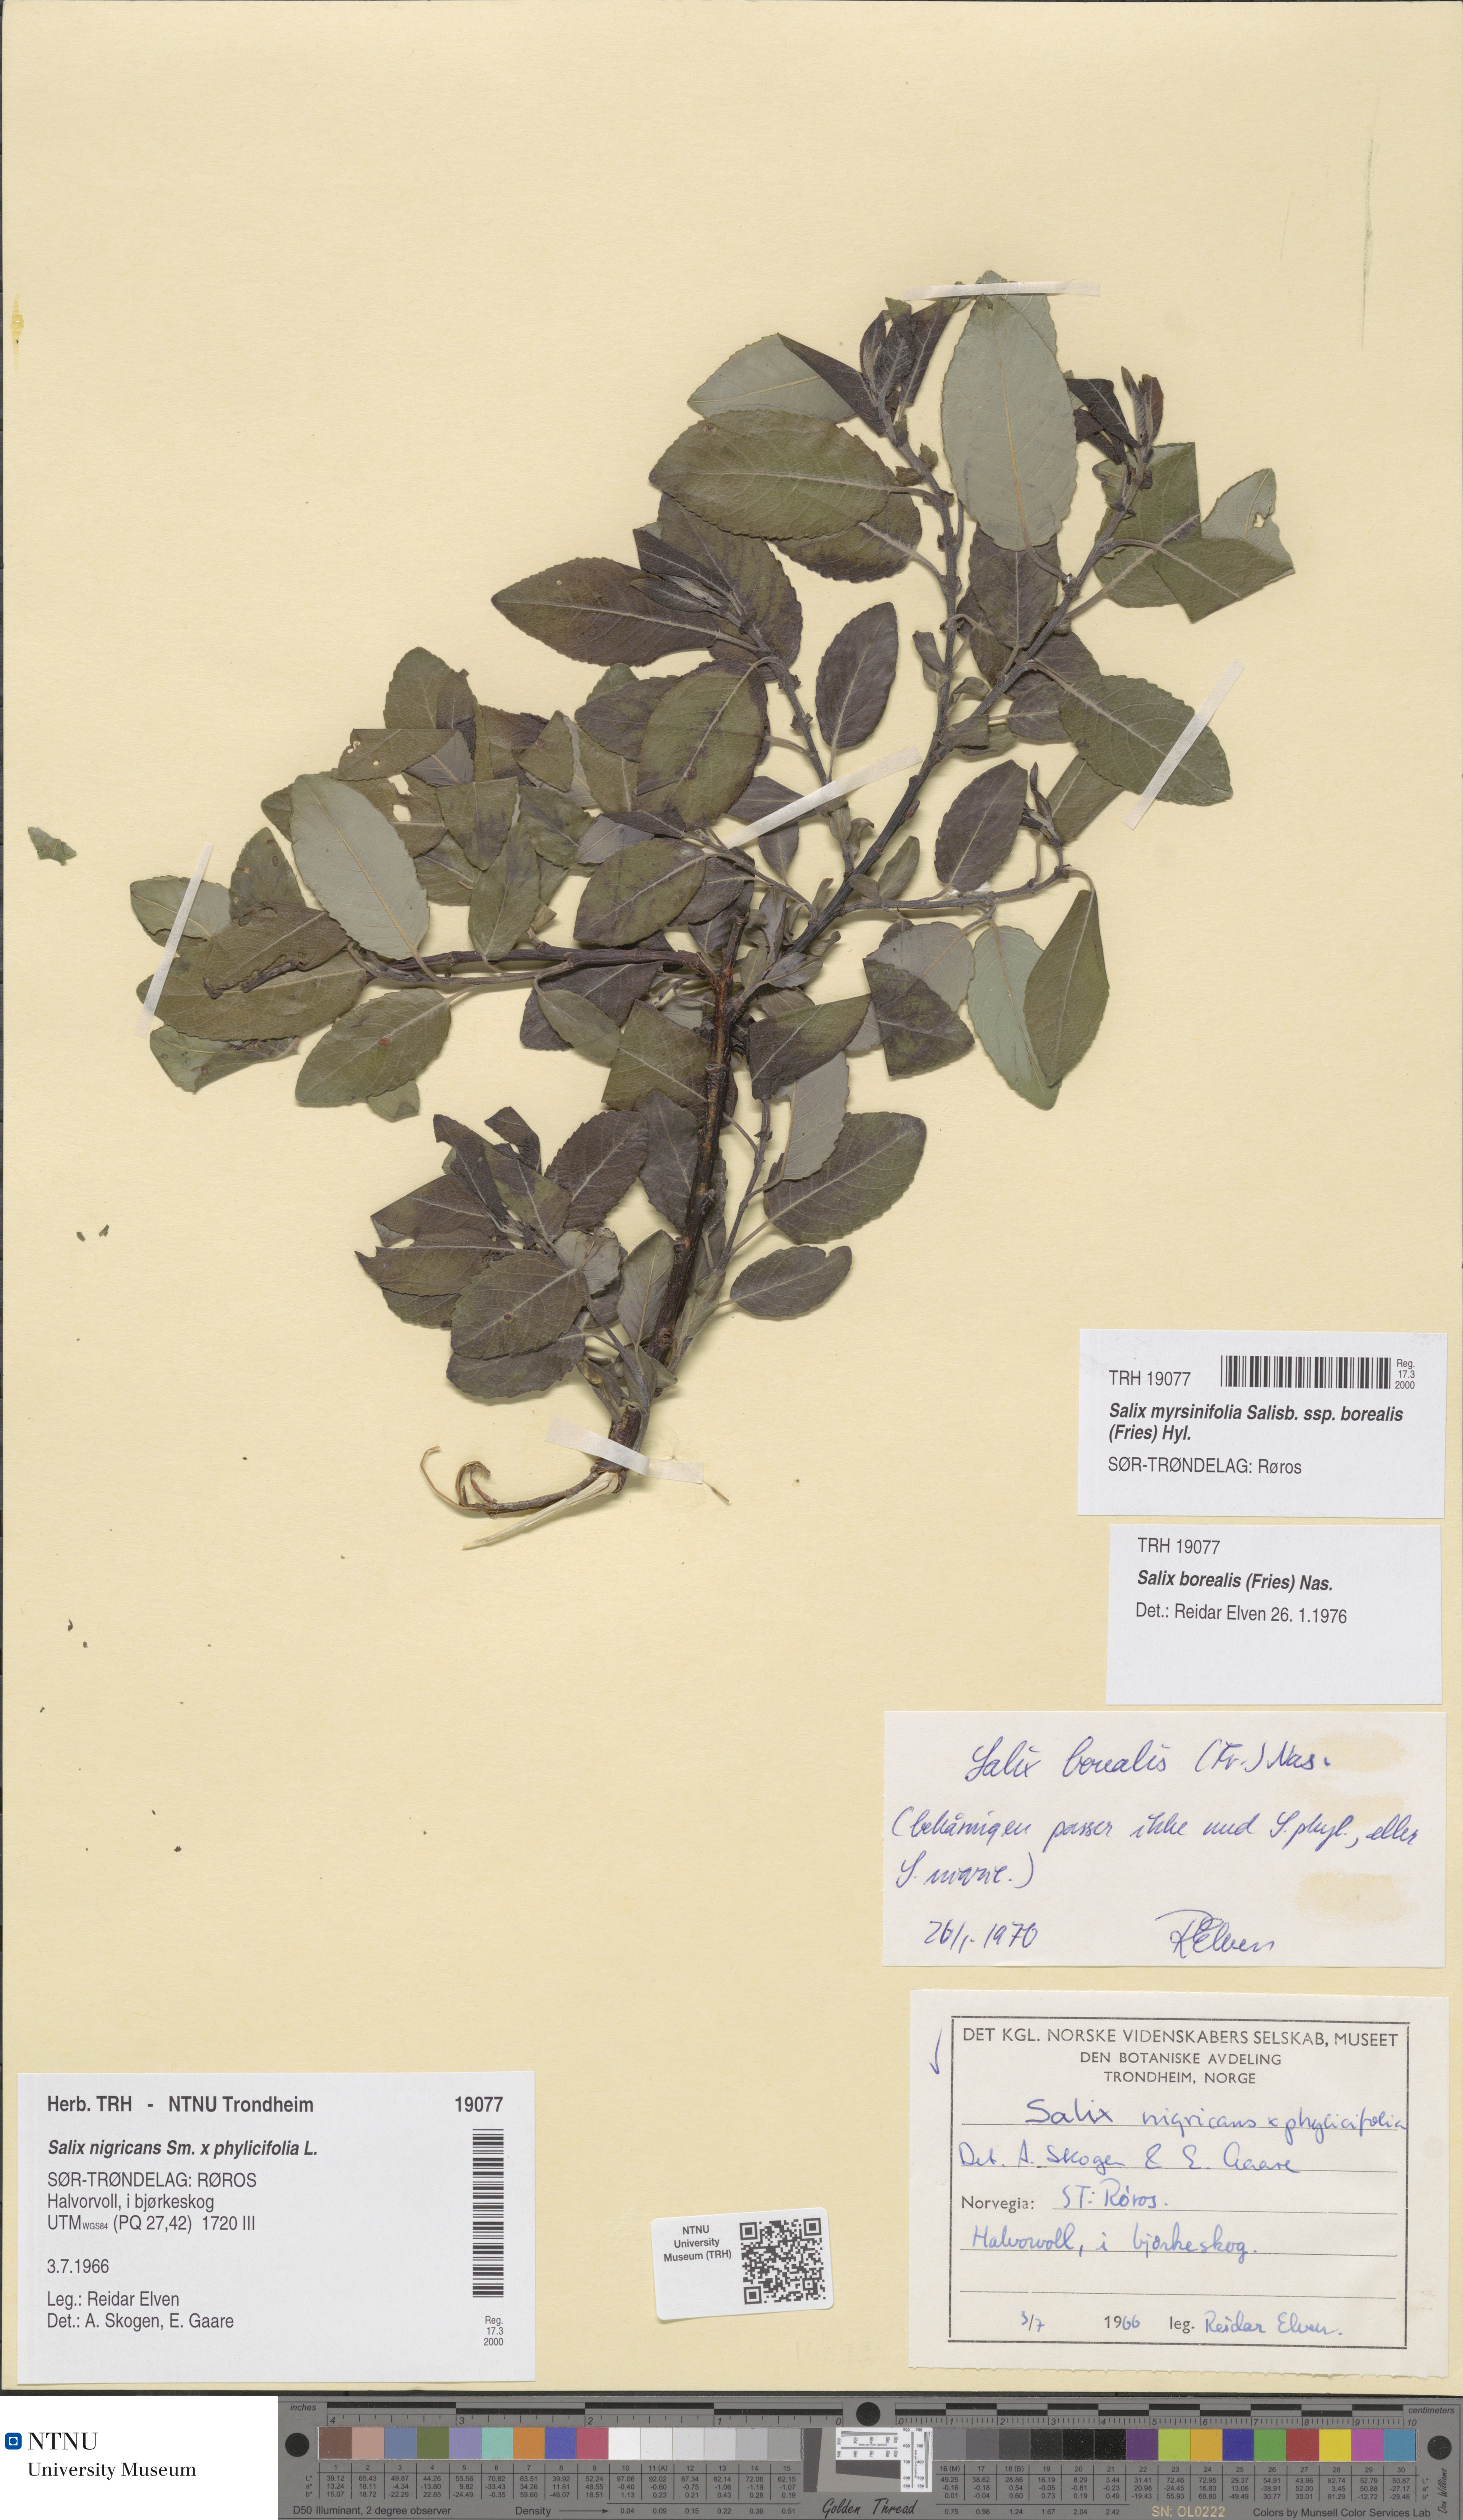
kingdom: Plantae
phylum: Tracheophyta
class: Magnoliopsida
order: Malpighiales
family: Salicaceae
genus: Salix
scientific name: Salix myrsinifolia
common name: Dark-leaved willow
